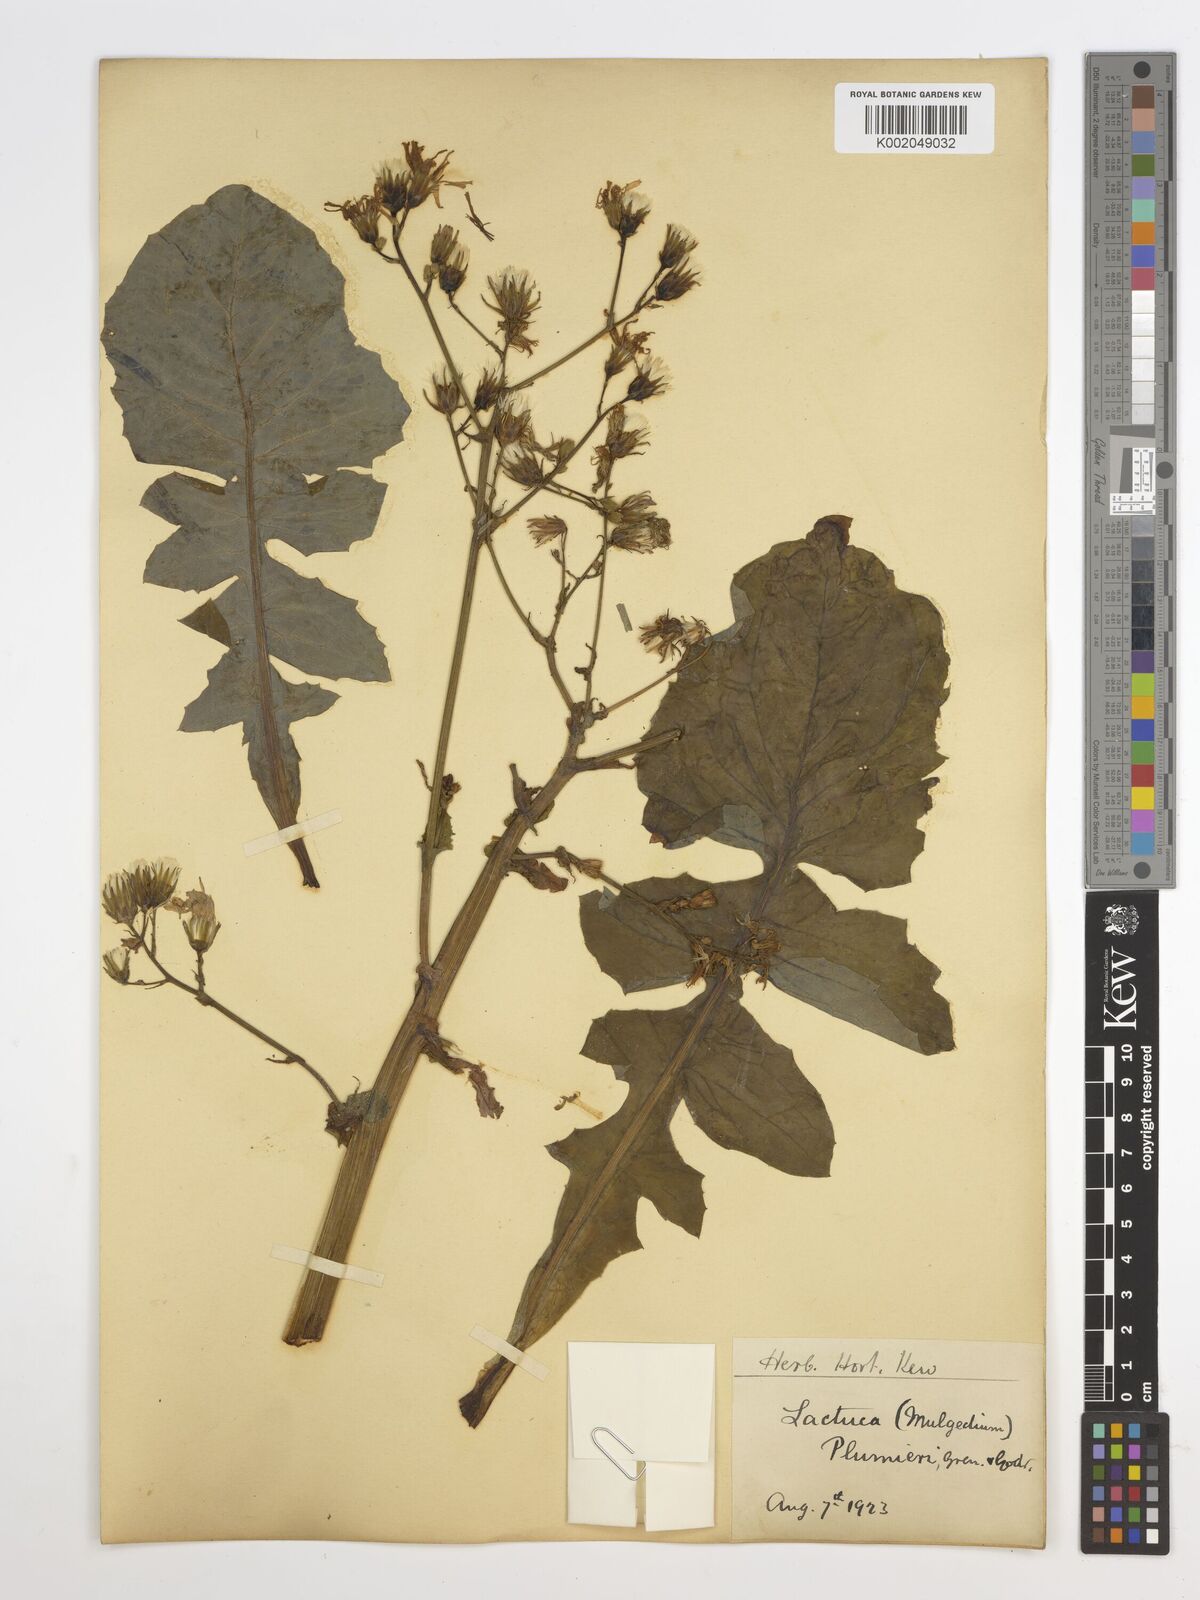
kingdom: Plantae
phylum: Tracheophyta
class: Magnoliopsida
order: Asterales
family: Asteraceae
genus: Lactuca
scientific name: Lactuca perennis
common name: Mountain lettuce
